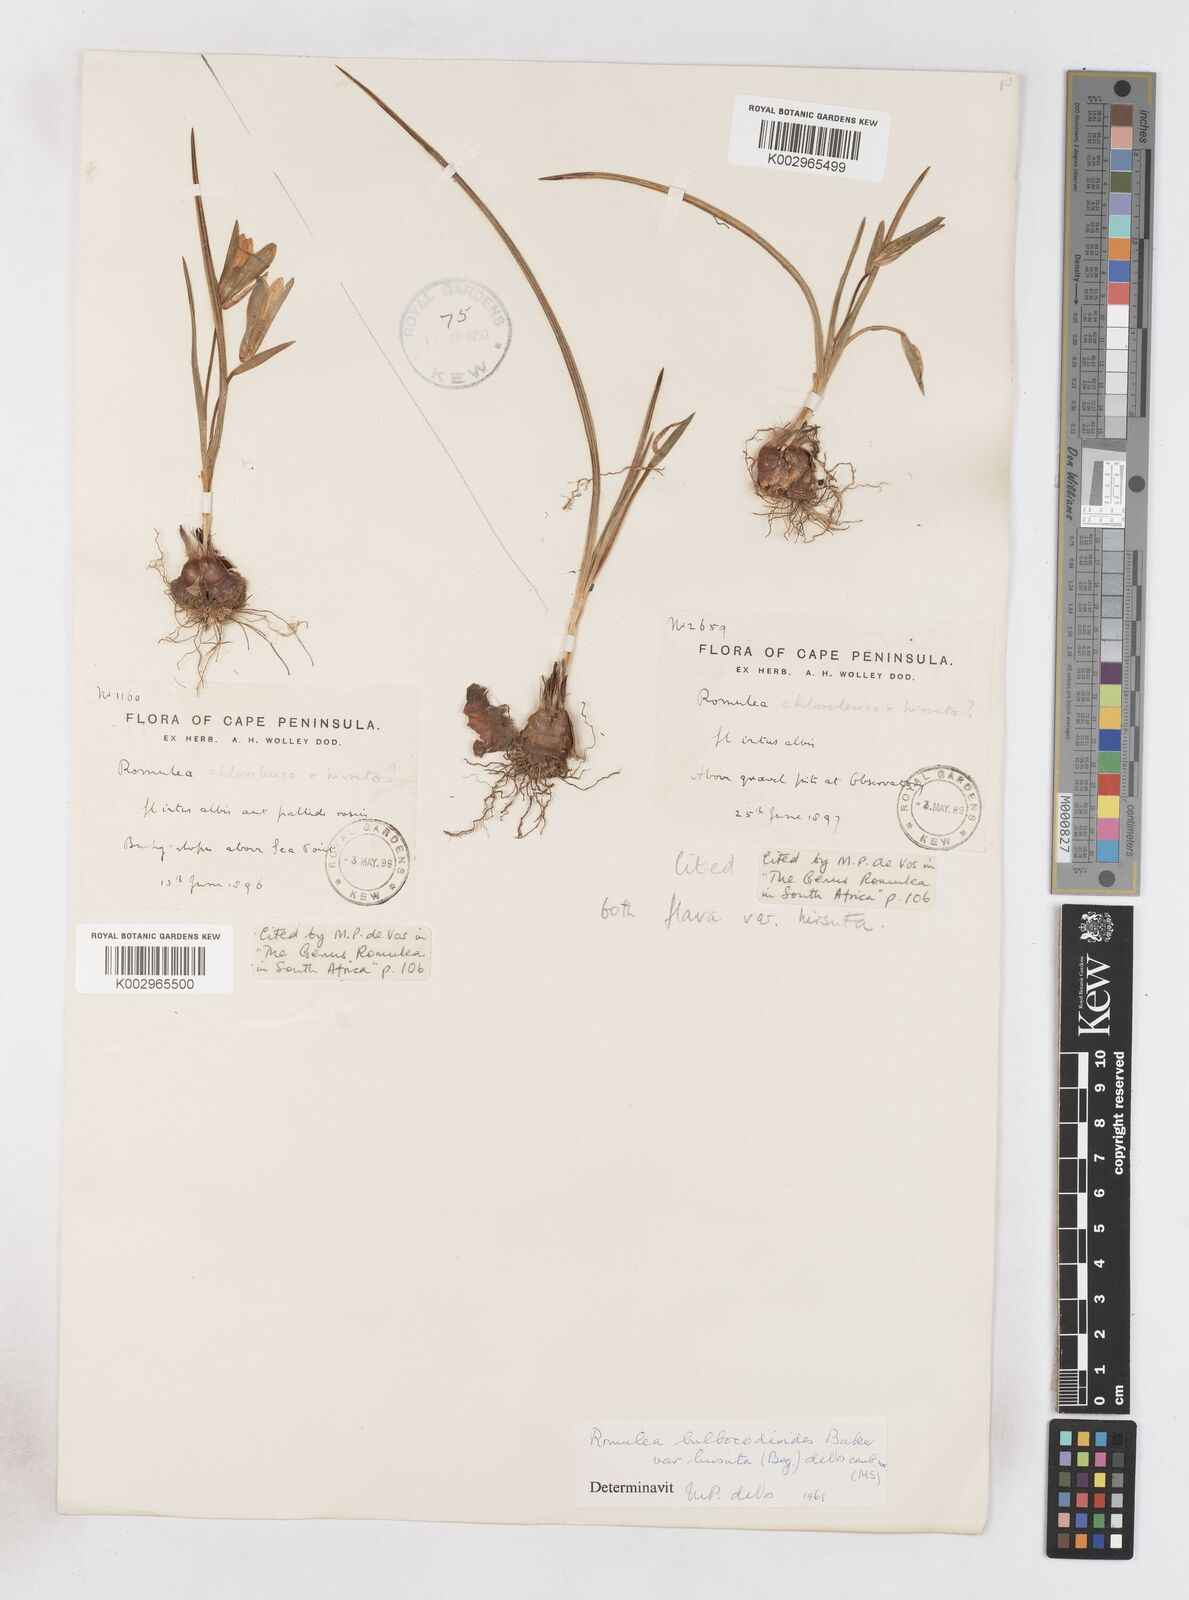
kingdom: Plantae
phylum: Tracheophyta
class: Liliopsida
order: Asparagales
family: Iridaceae
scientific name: Iridaceae
